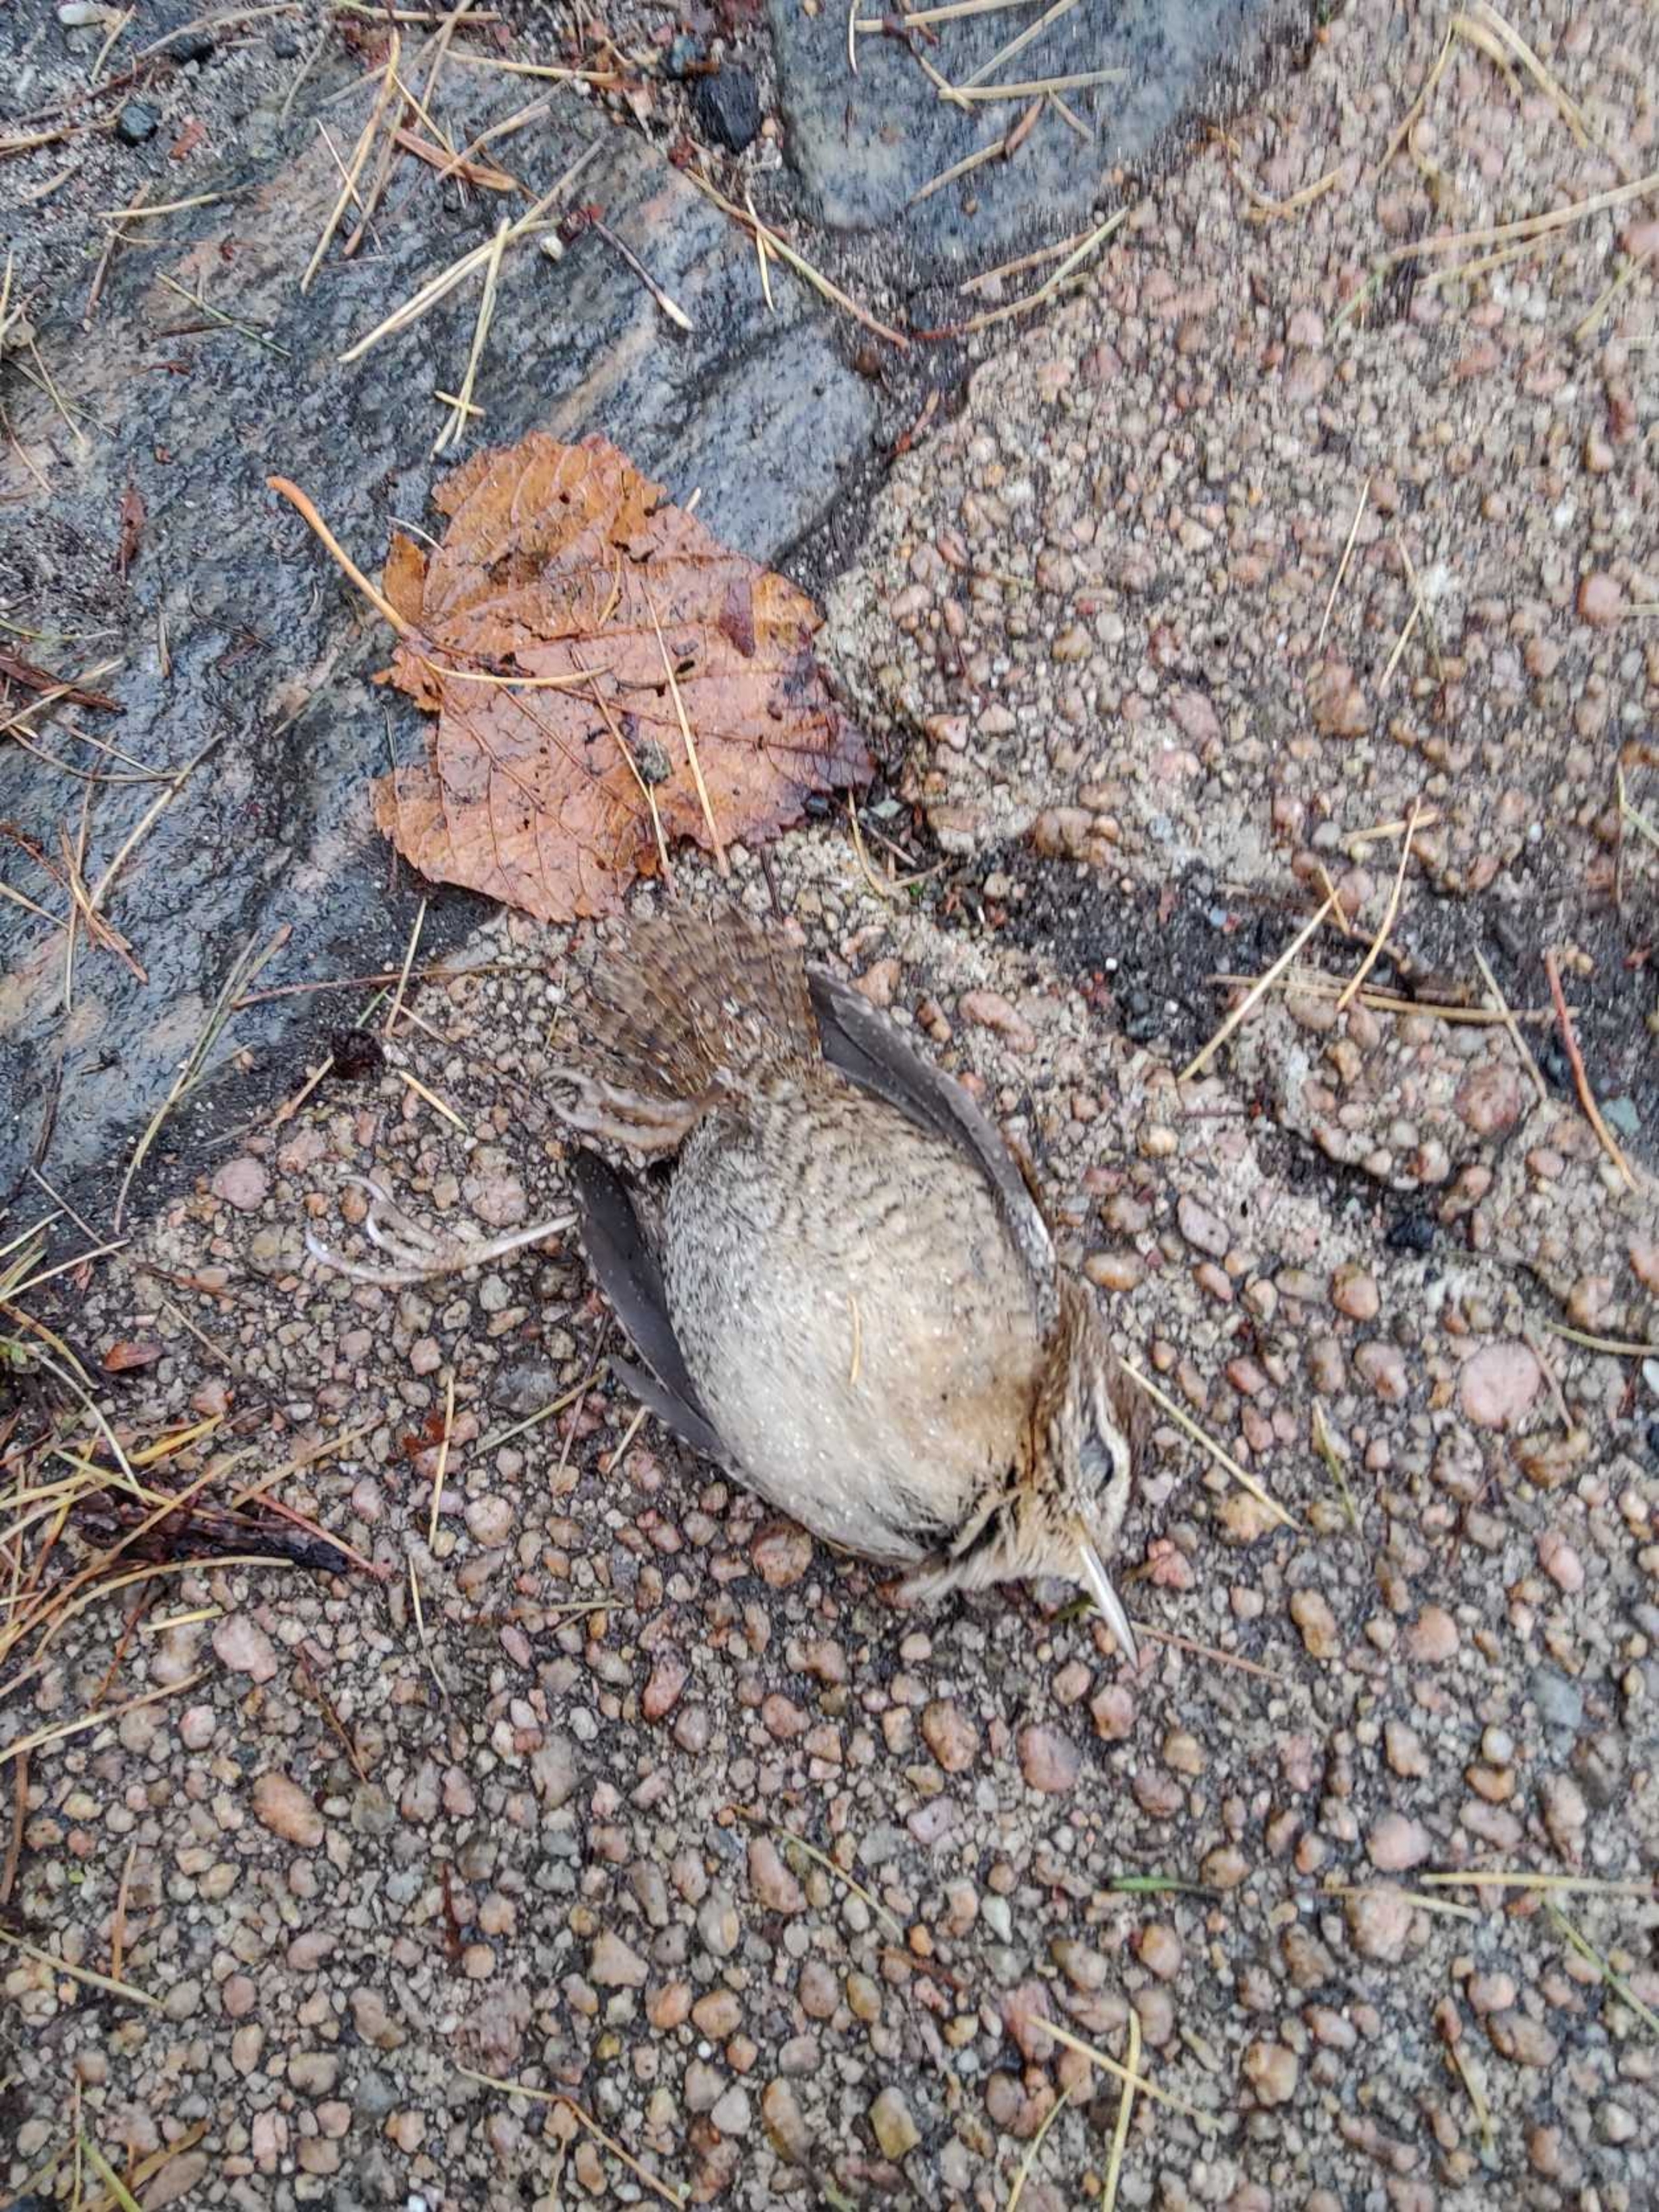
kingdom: Animalia
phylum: Chordata
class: Aves
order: Passeriformes
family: Troglodytidae
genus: Troglodytes
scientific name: Troglodytes troglodytes
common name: Gærdesmutte
